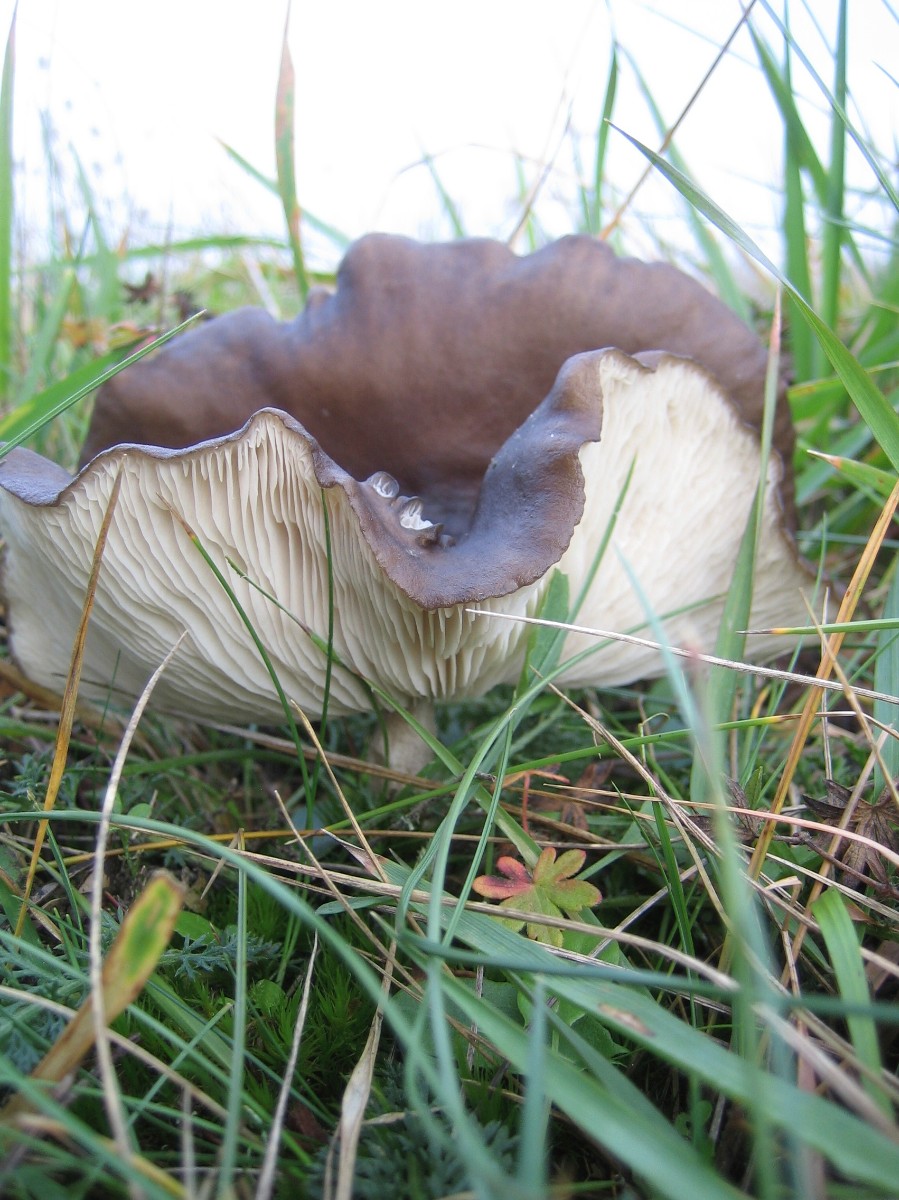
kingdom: Fungi
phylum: Basidiomycota
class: Agaricomycetes
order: Agaricales
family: Tricholomataceae
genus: Melanoleuca
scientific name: Melanoleuca
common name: munkehat
